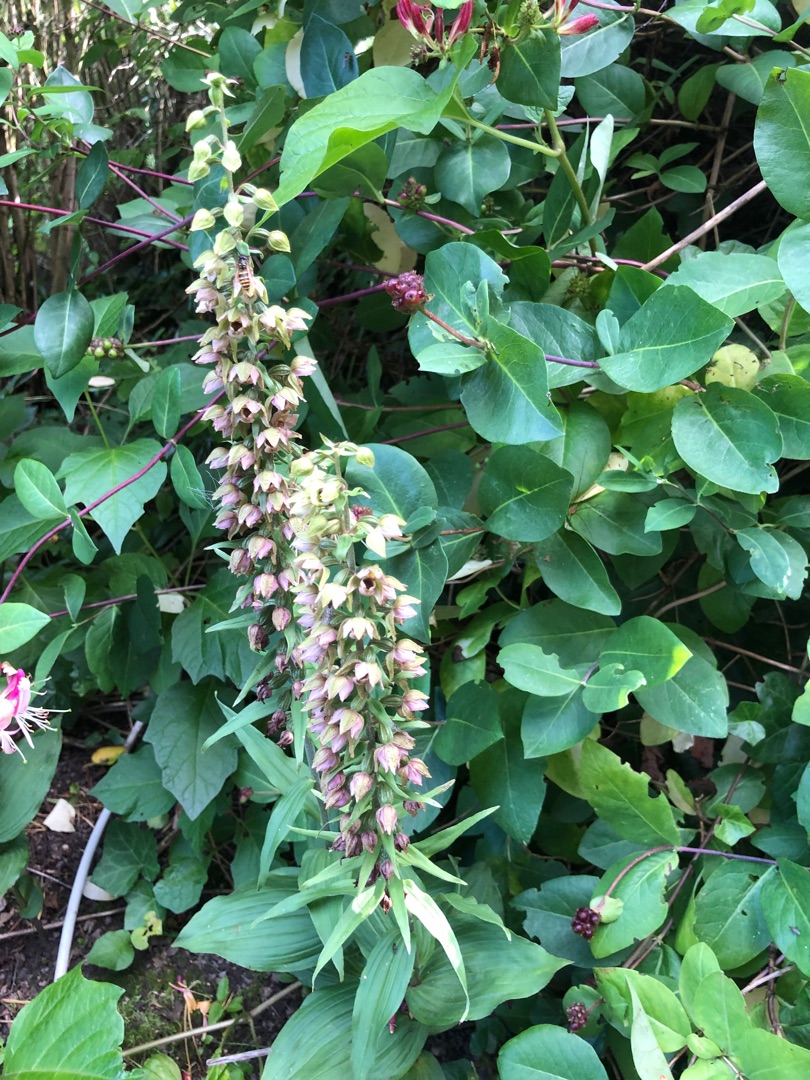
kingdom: Plantae
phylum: Tracheophyta
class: Liliopsida
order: Asparagales
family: Orchidaceae
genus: Epipactis
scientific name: Epipactis helleborine
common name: Skov-hullæbe
